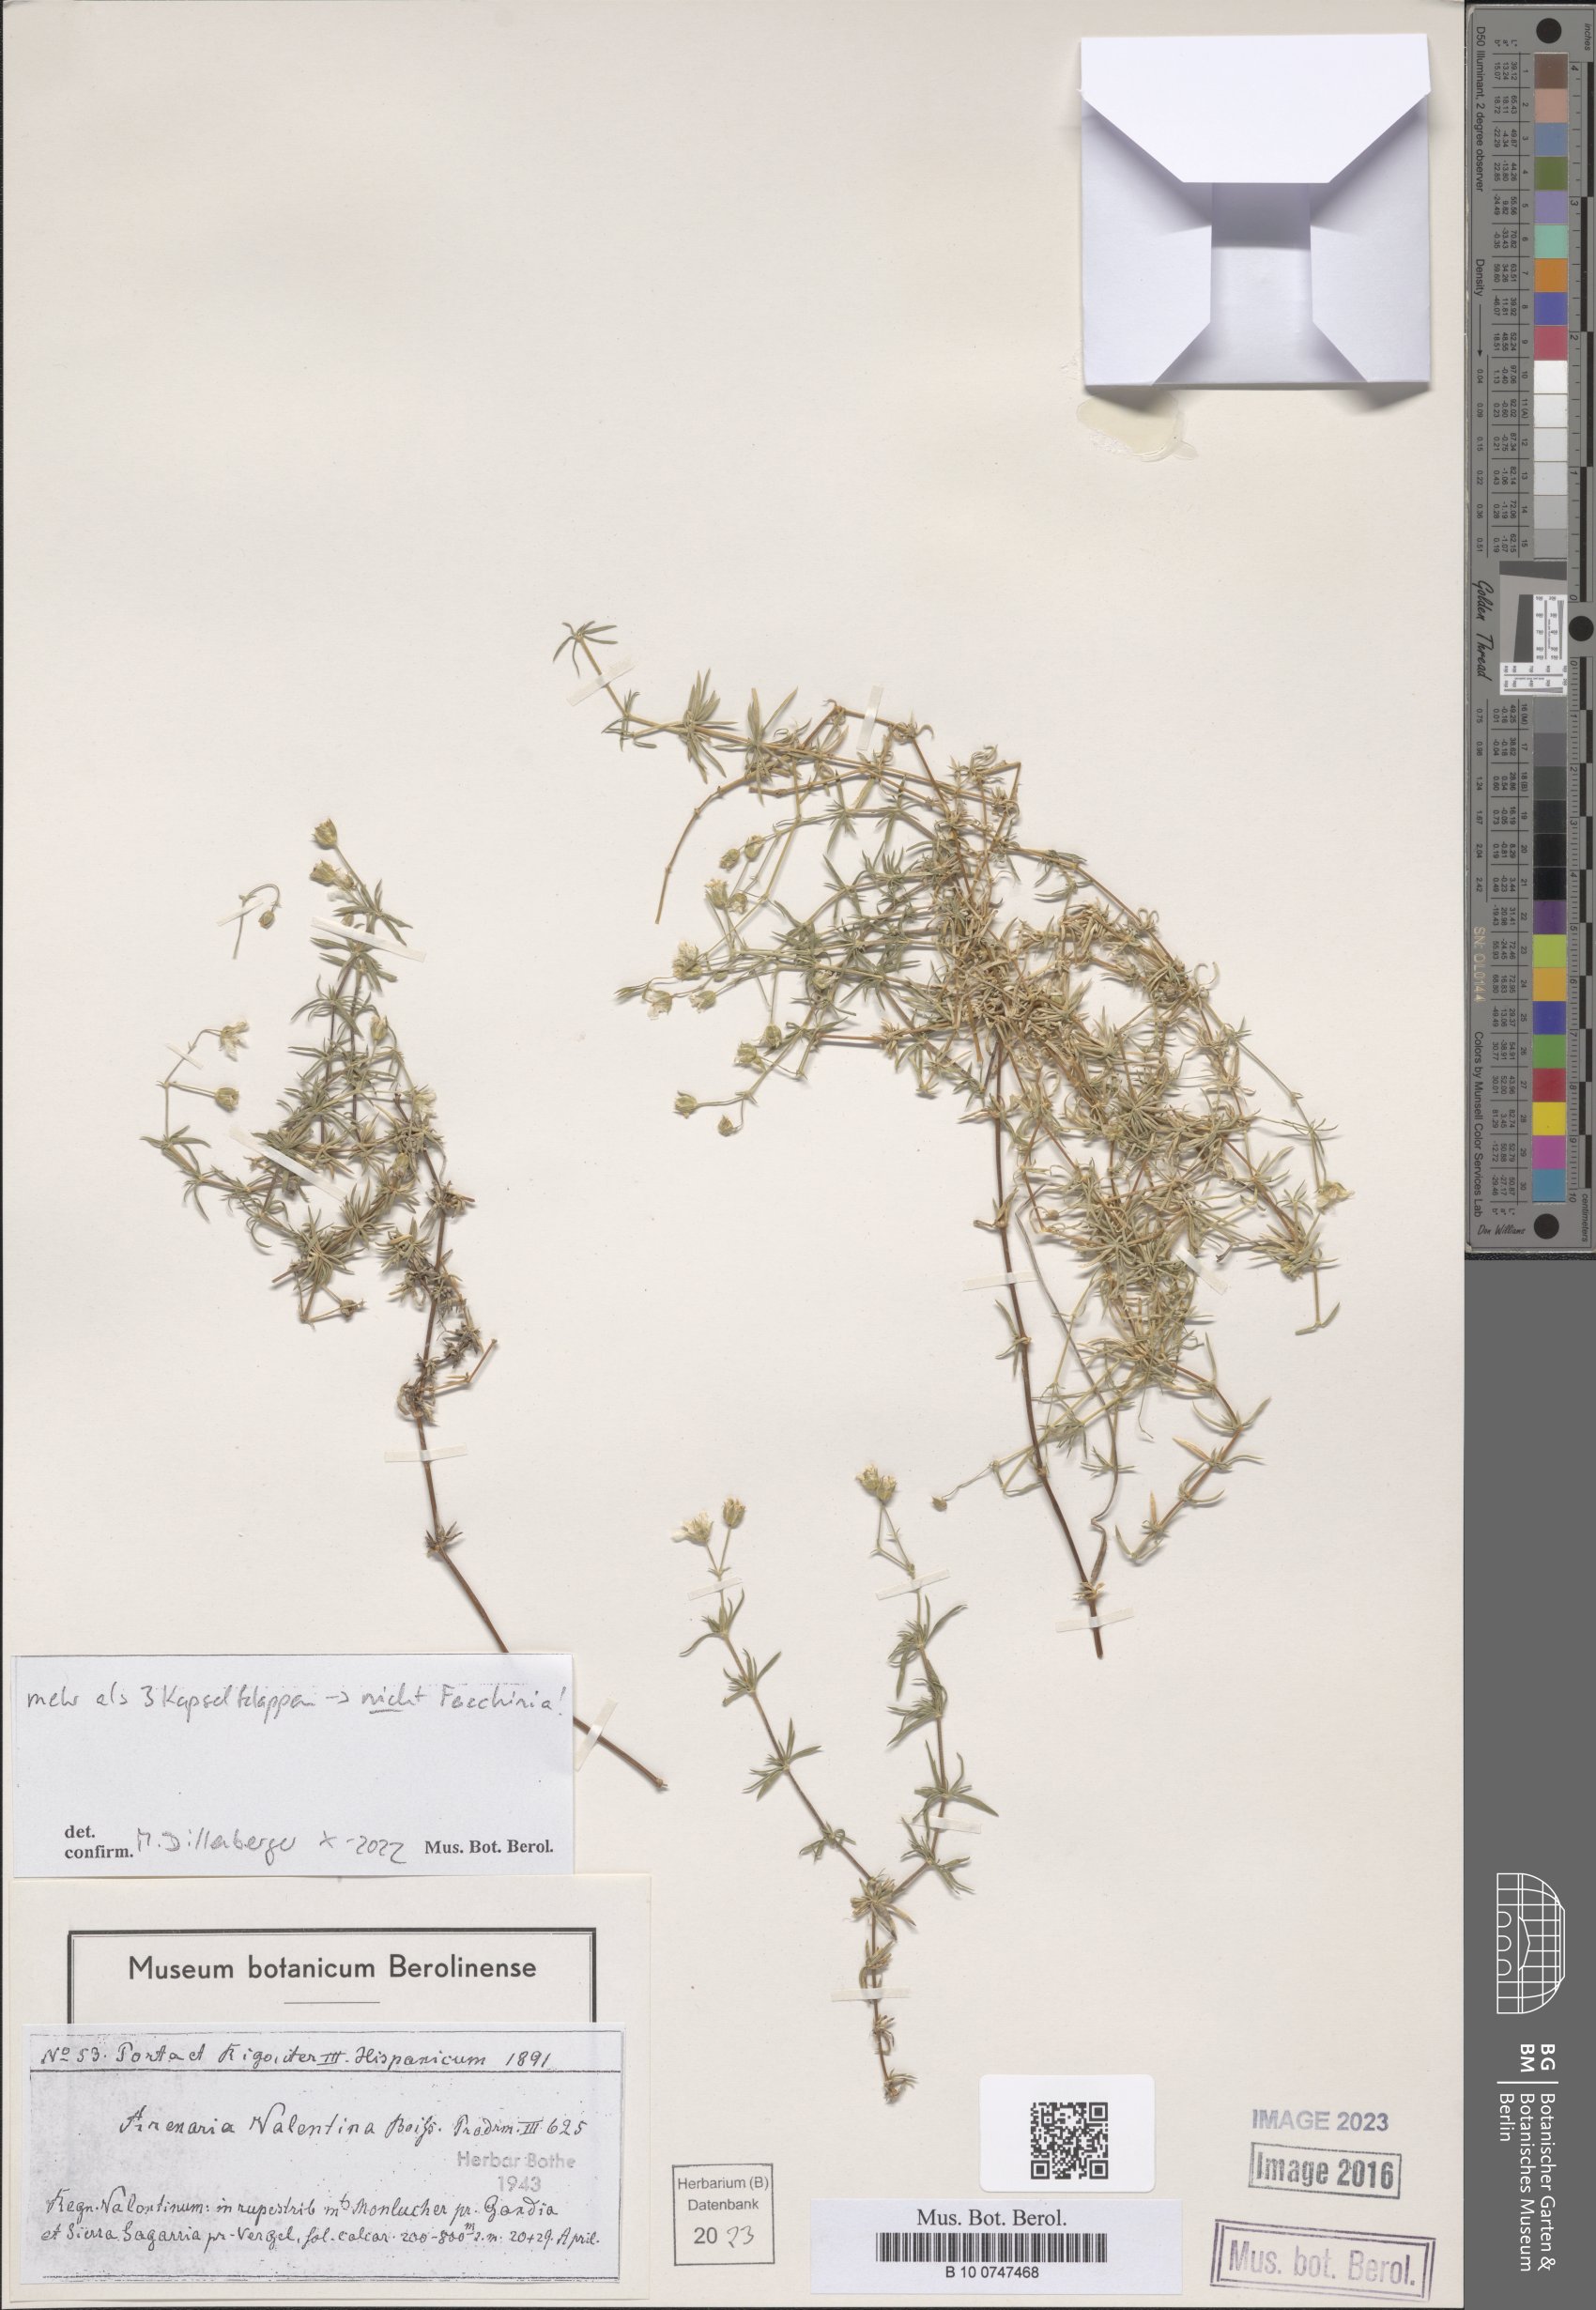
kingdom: Plantae
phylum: Tracheophyta
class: Magnoliopsida
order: Caryophyllales
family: Caryophyllaceae
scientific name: Caryophyllaceae
